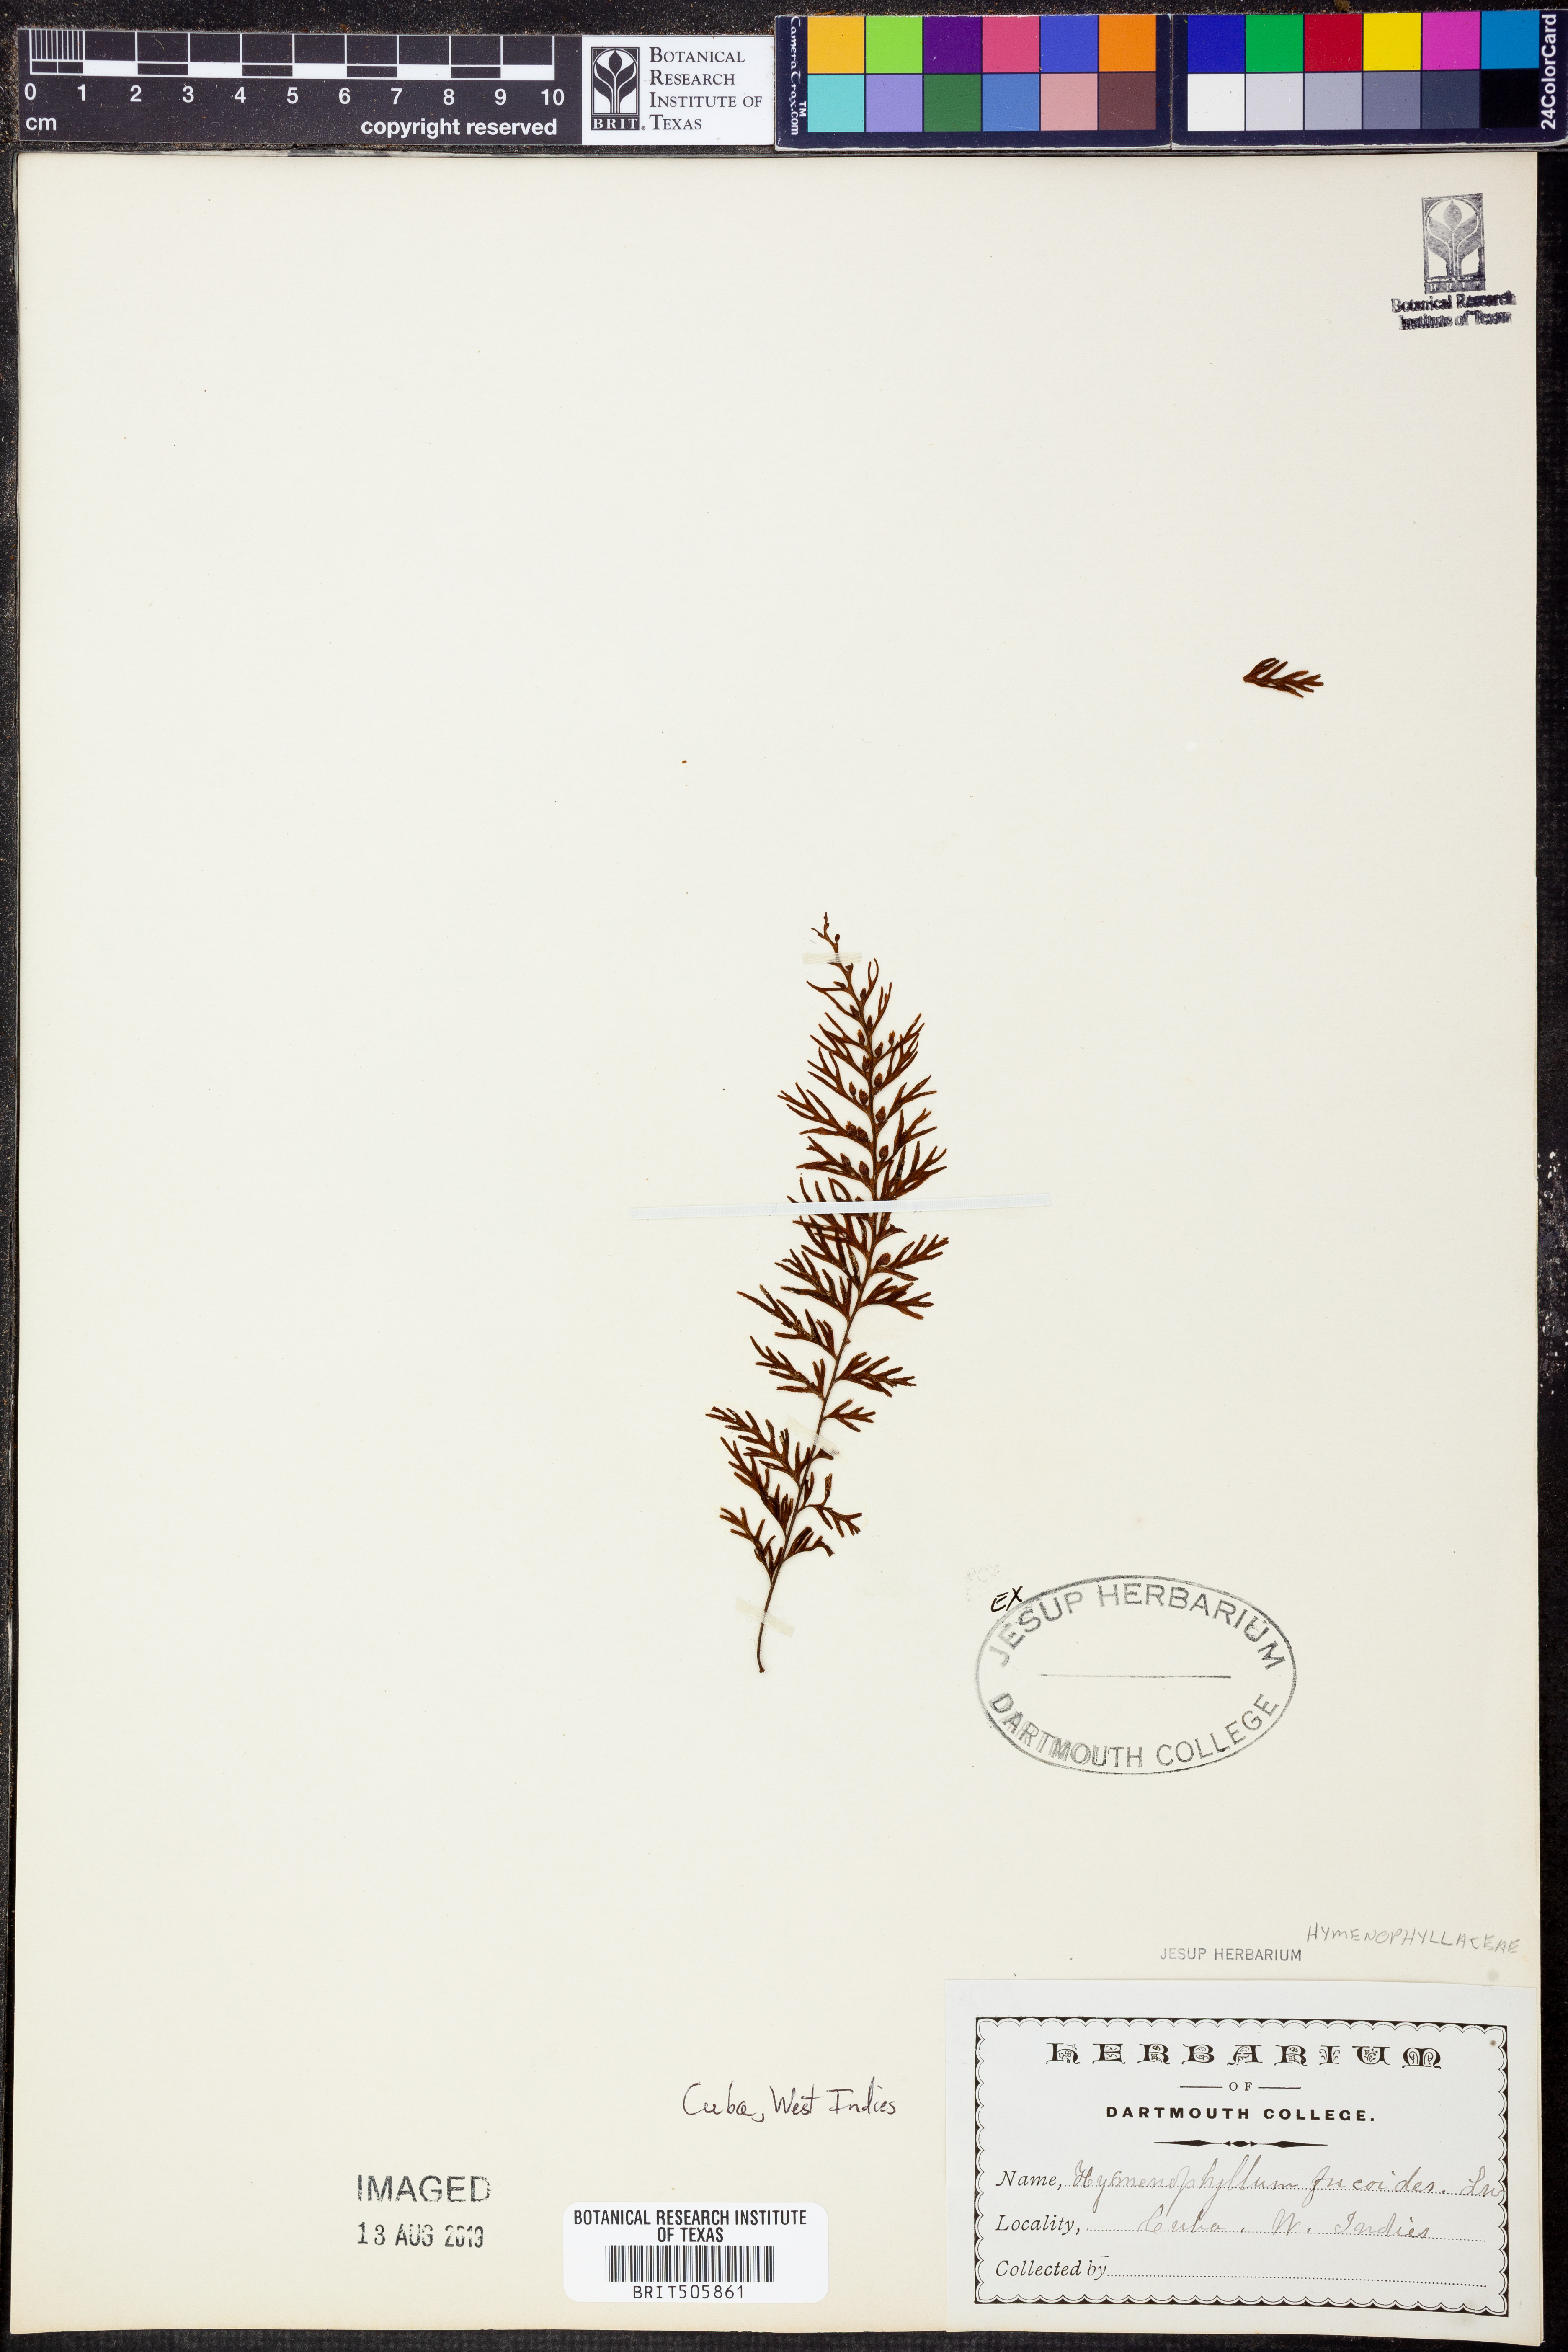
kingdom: Plantae
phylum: Tracheophyta
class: Polypodiopsida
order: Hymenophyllales
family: Hymenophyllaceae
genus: Hymenophyllum
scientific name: Hymenophyllum fucoides
